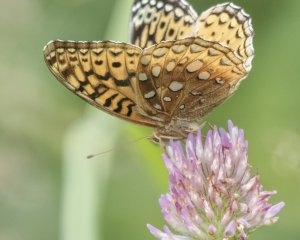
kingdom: Animalia
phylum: Arthropoda
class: Insecta
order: Lepidoptera
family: Nymphalidae
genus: Speyeria
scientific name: Speyeria cybele
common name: Great Spangled Fritillary
